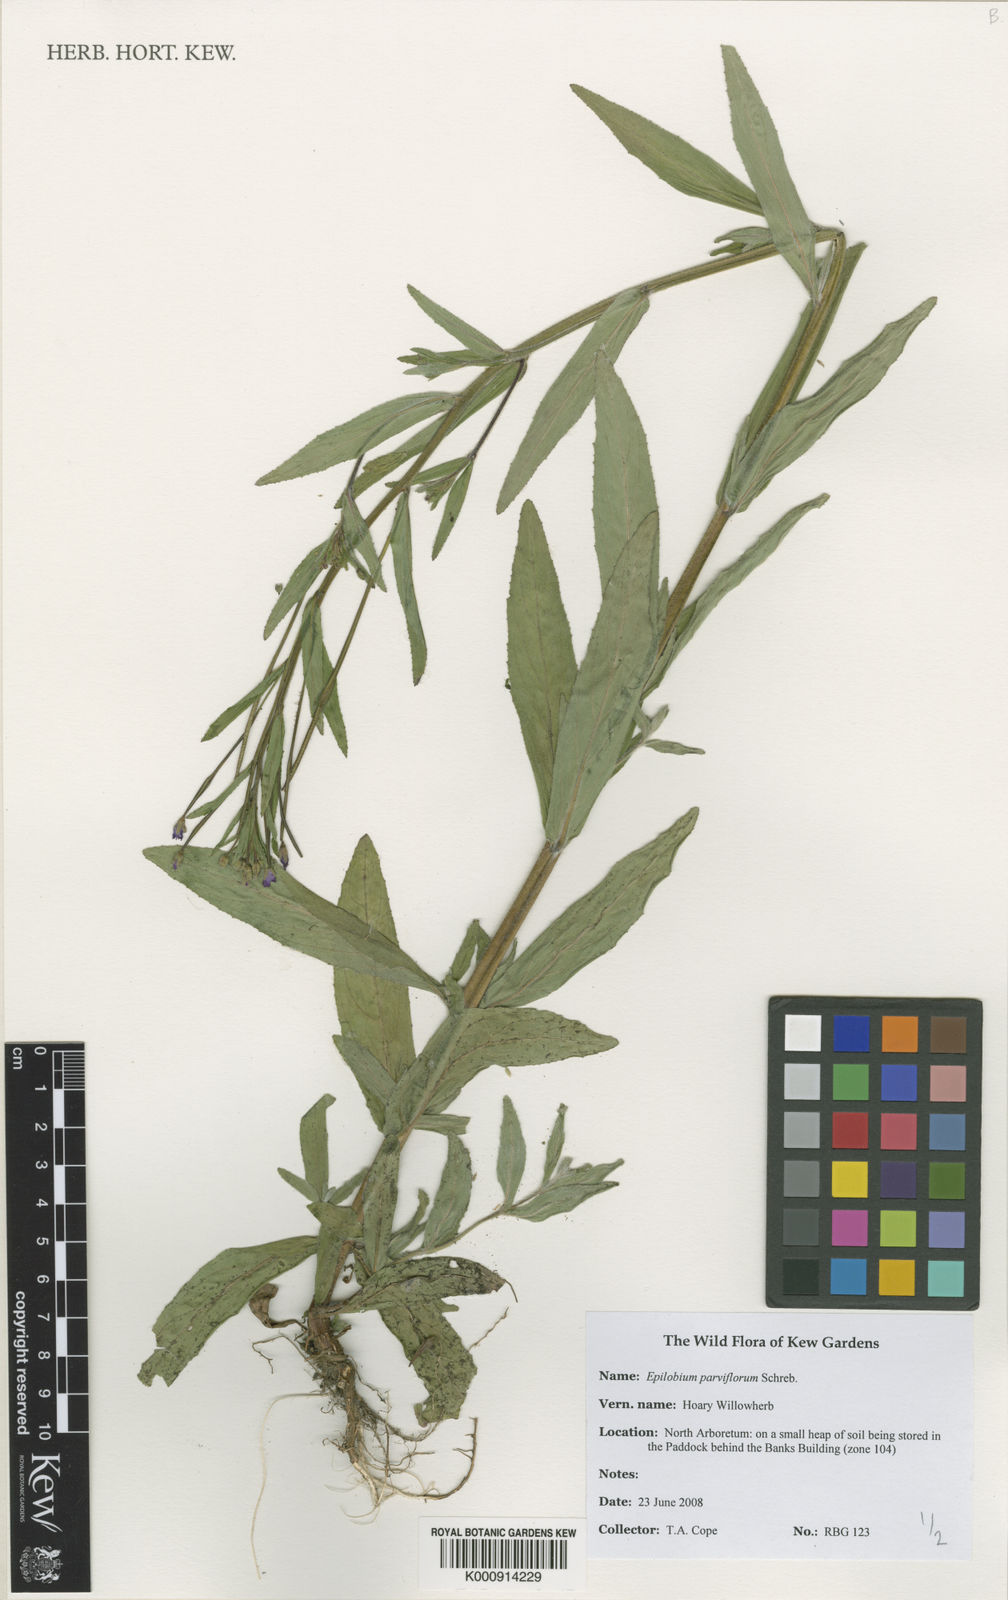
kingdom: Plantae
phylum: Tracheophyta
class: Magnoliopsida
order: Myrtales
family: Onagraceae
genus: Epilobium
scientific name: Epilobium parviflorum
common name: Hoary willowherb
